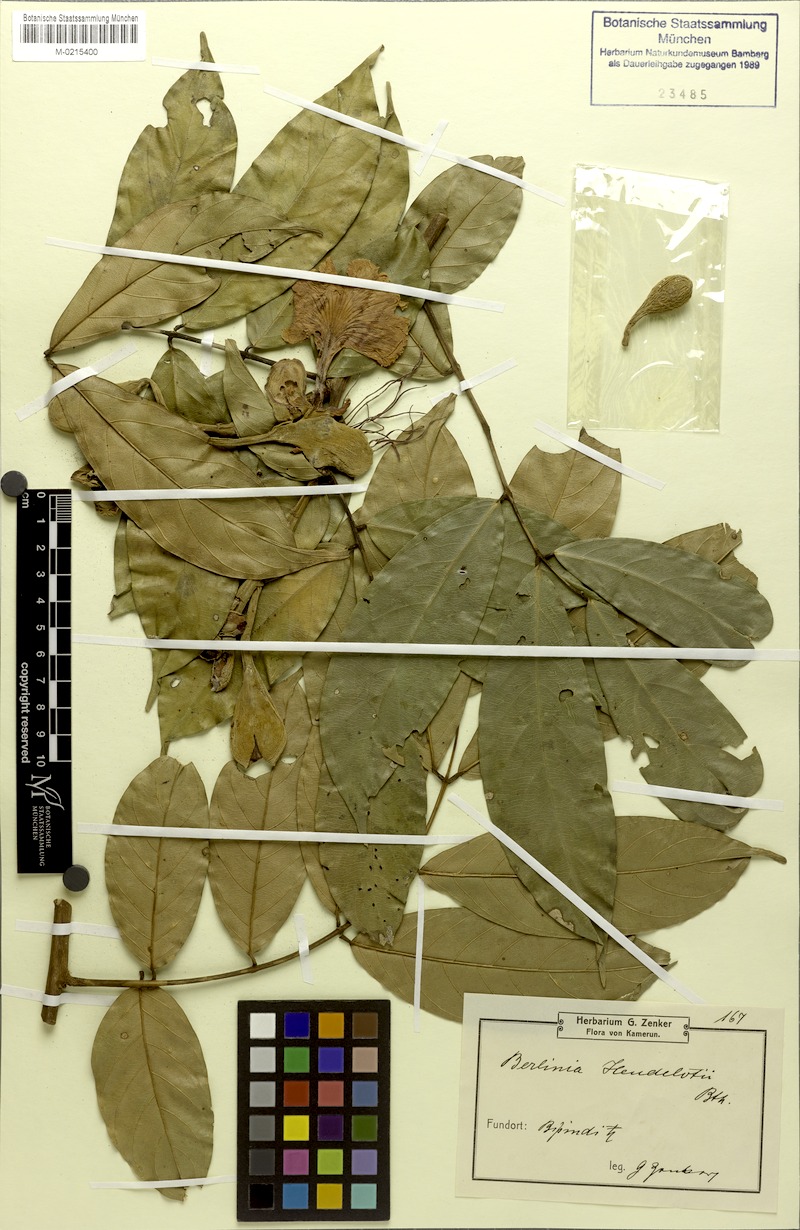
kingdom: Plantae
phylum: Tracheophyta
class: Magnoliopsida
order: Fabales
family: Fabaceae
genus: Berlinia
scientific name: Berlinia
